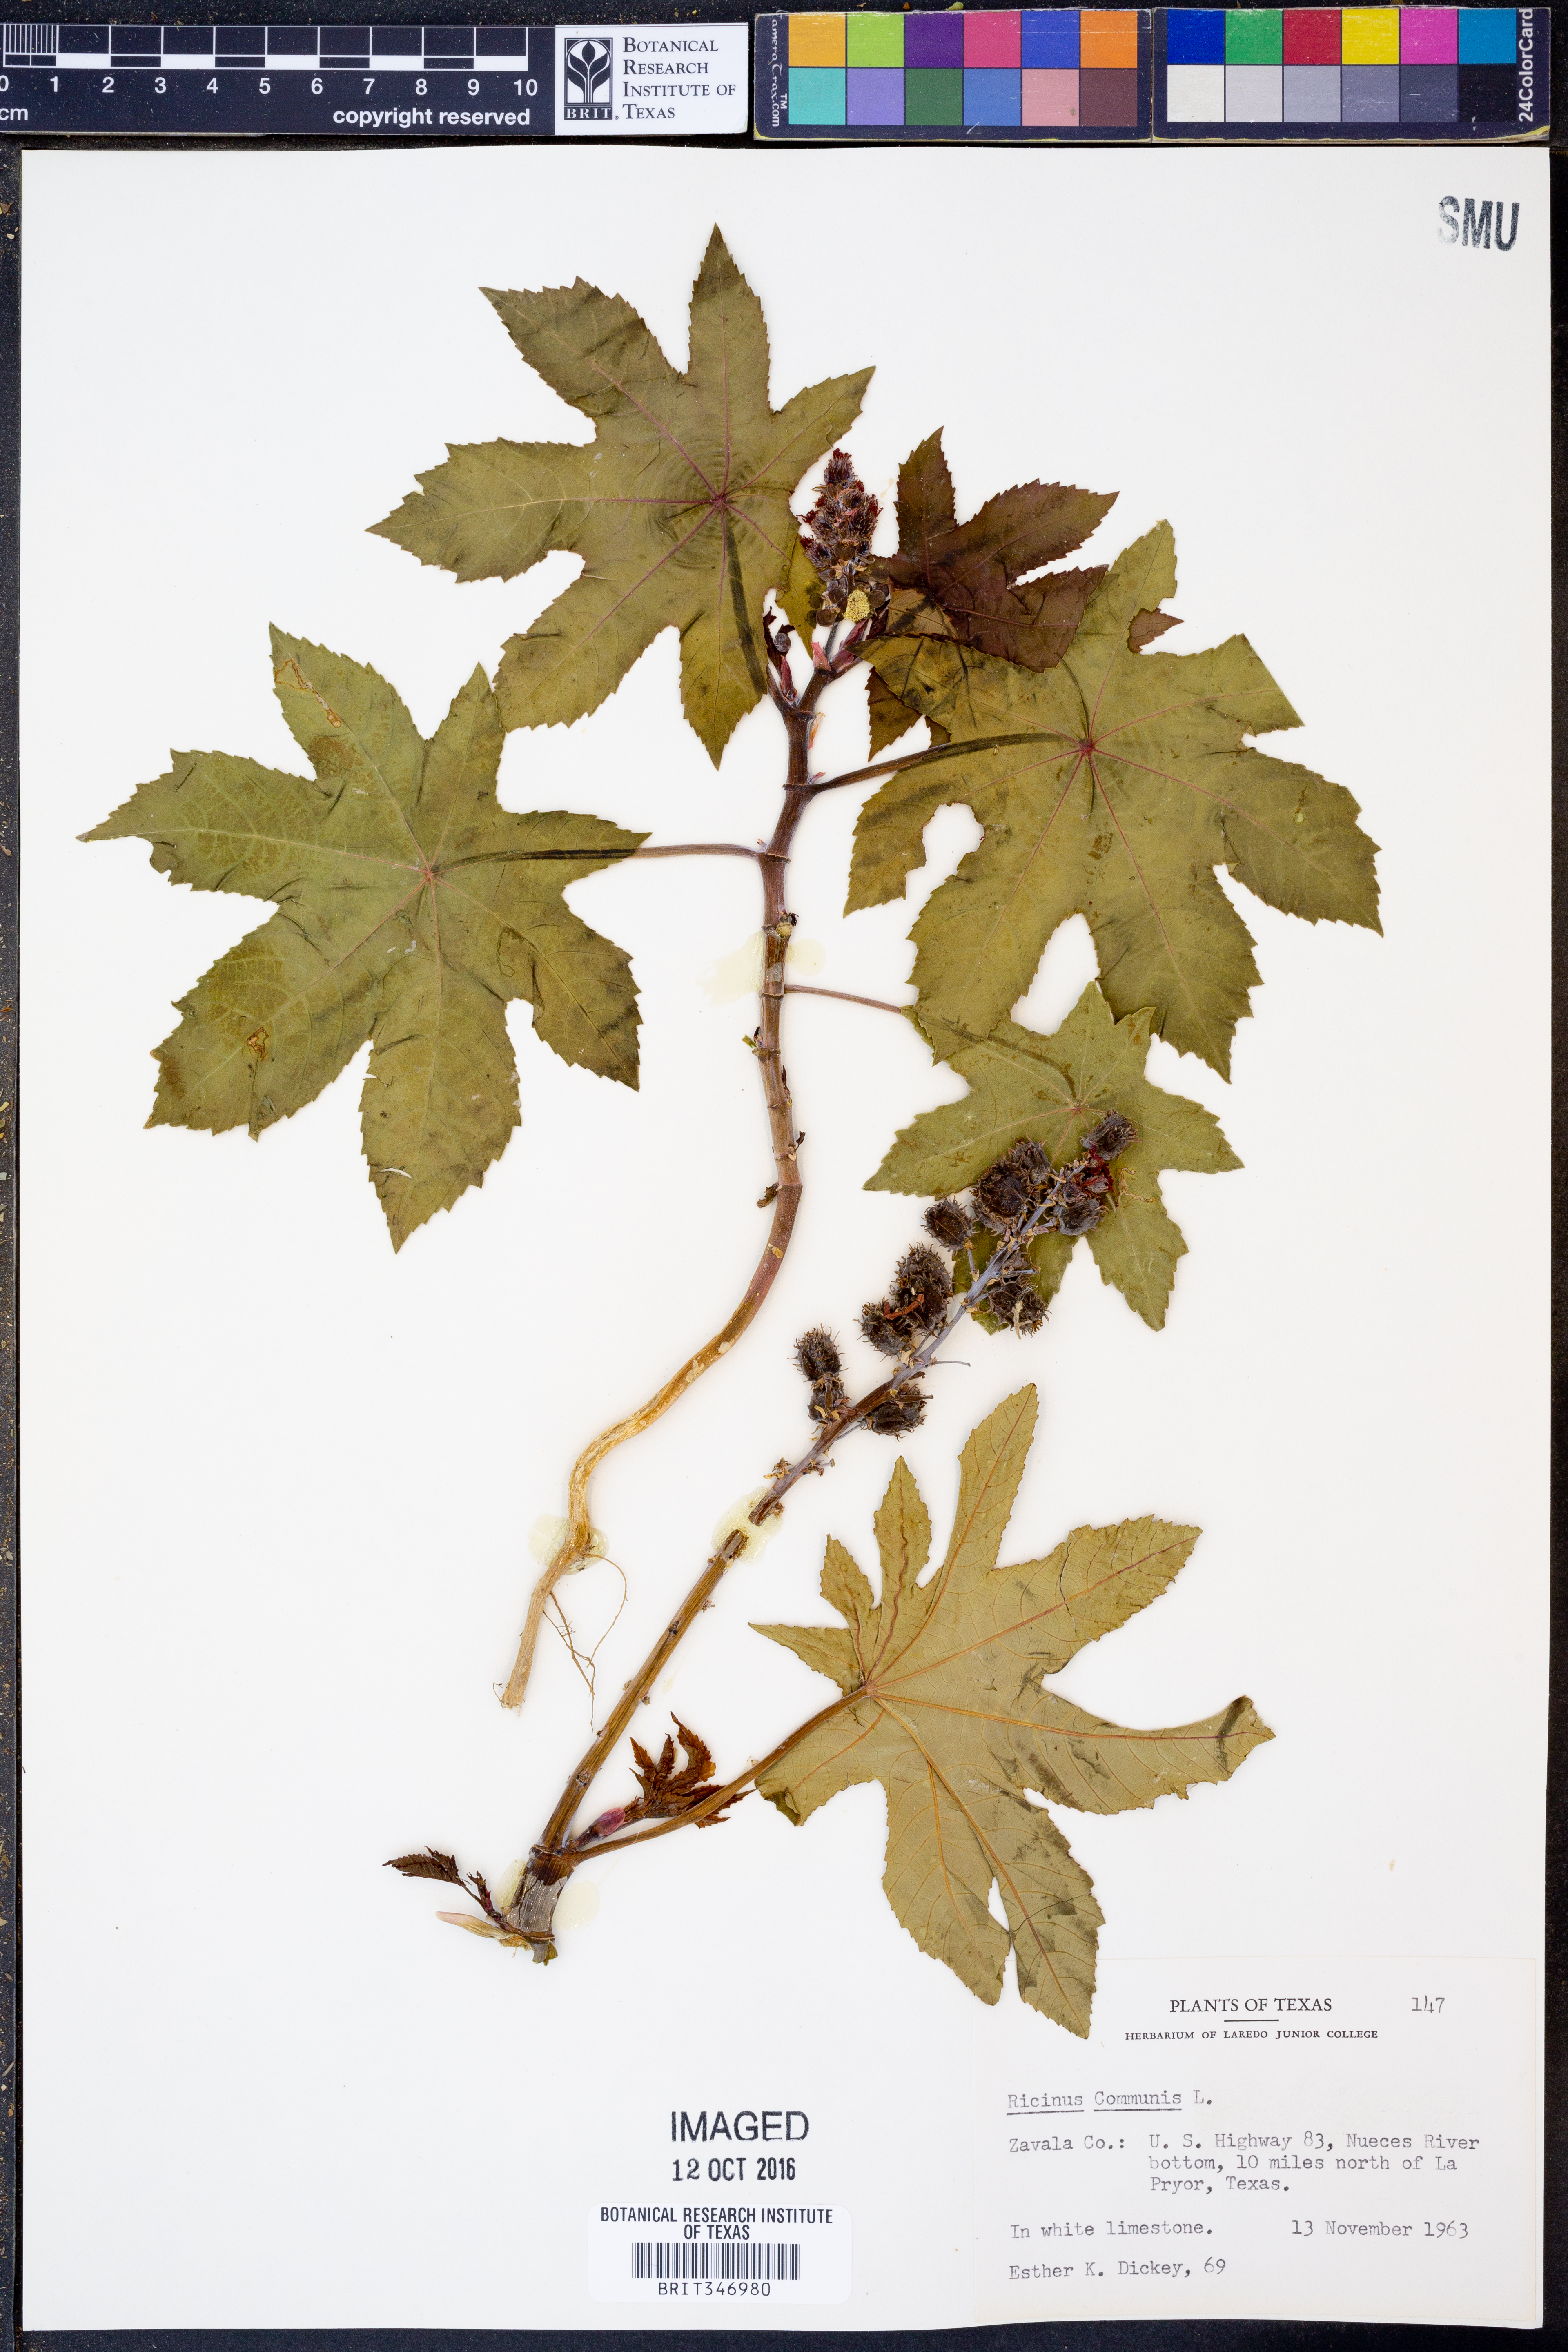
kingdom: Plantae
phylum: Tracheophyta
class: Magnoliopsida
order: Malpighiales
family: Euphorbiaceae
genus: Ricinus
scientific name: Ricinus communis
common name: Castor-oil-plant
